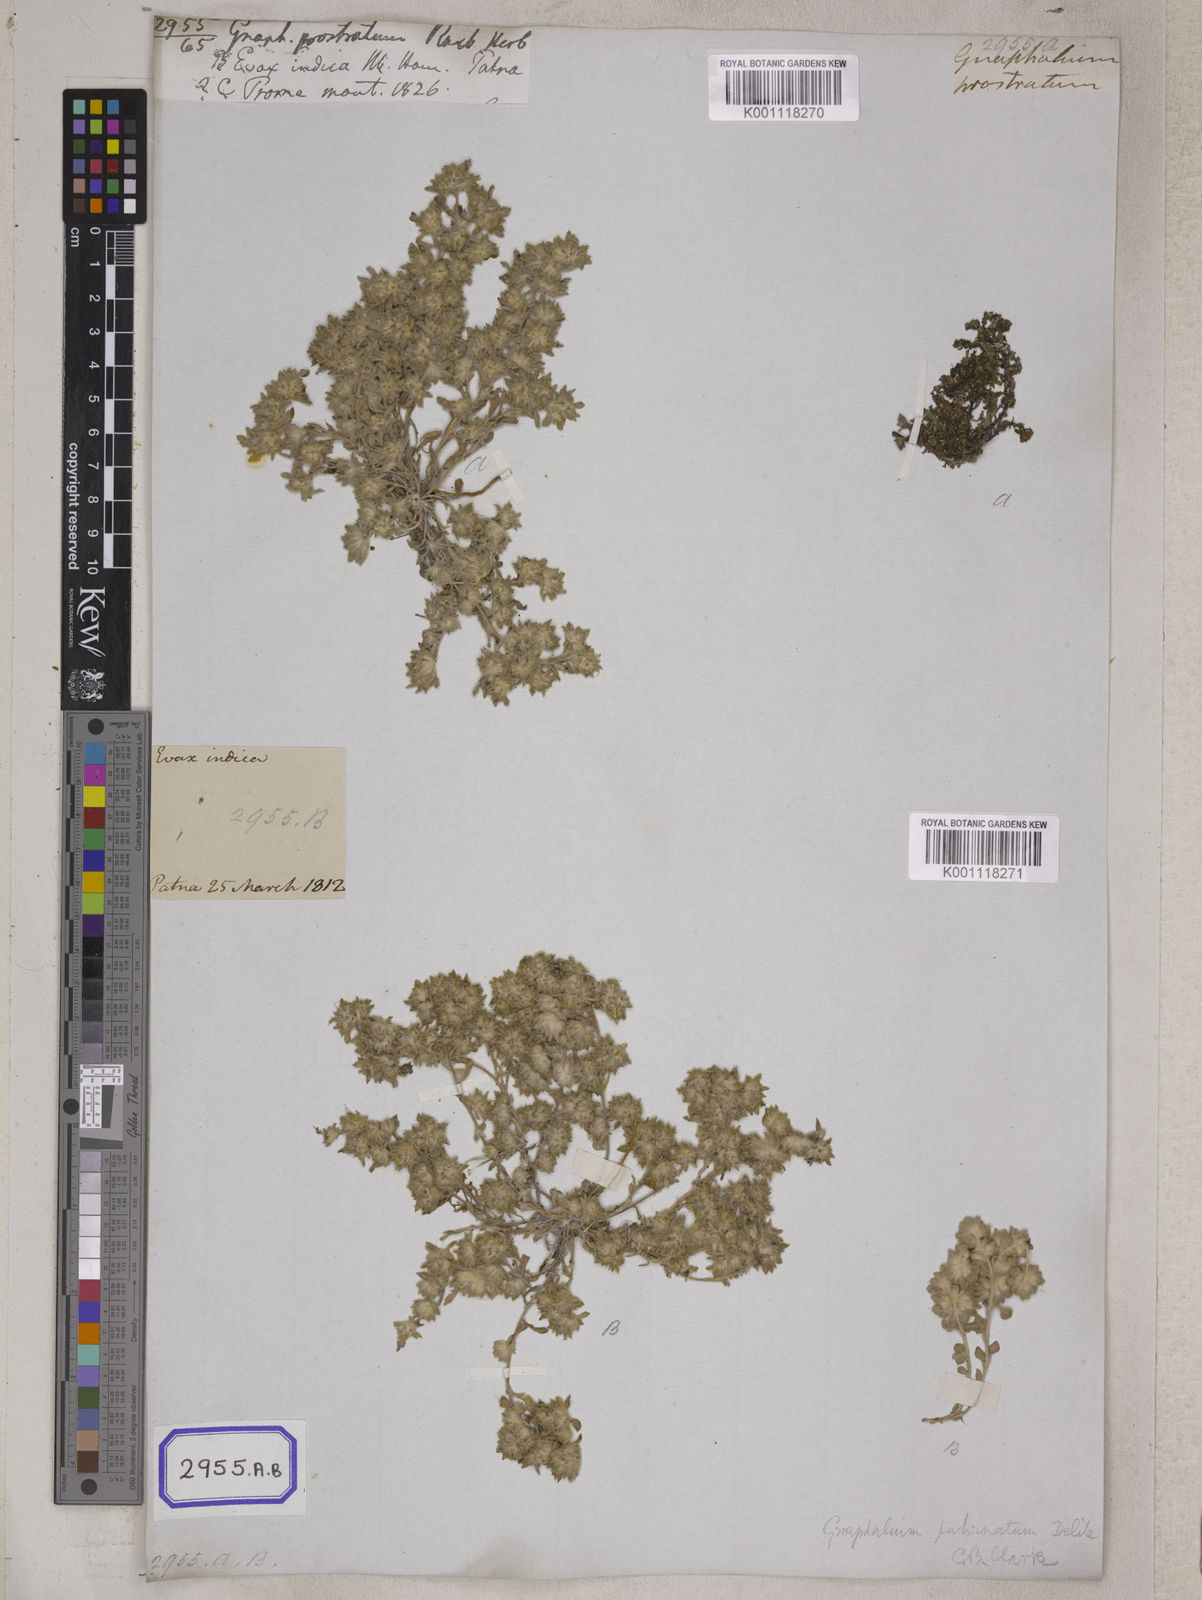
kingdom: Plantae
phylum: Tracheophyta
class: Magnoliopsida
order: Asterales
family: Asteraceae
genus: Gnomophalium
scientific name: Gnomophalium pulvinatum
